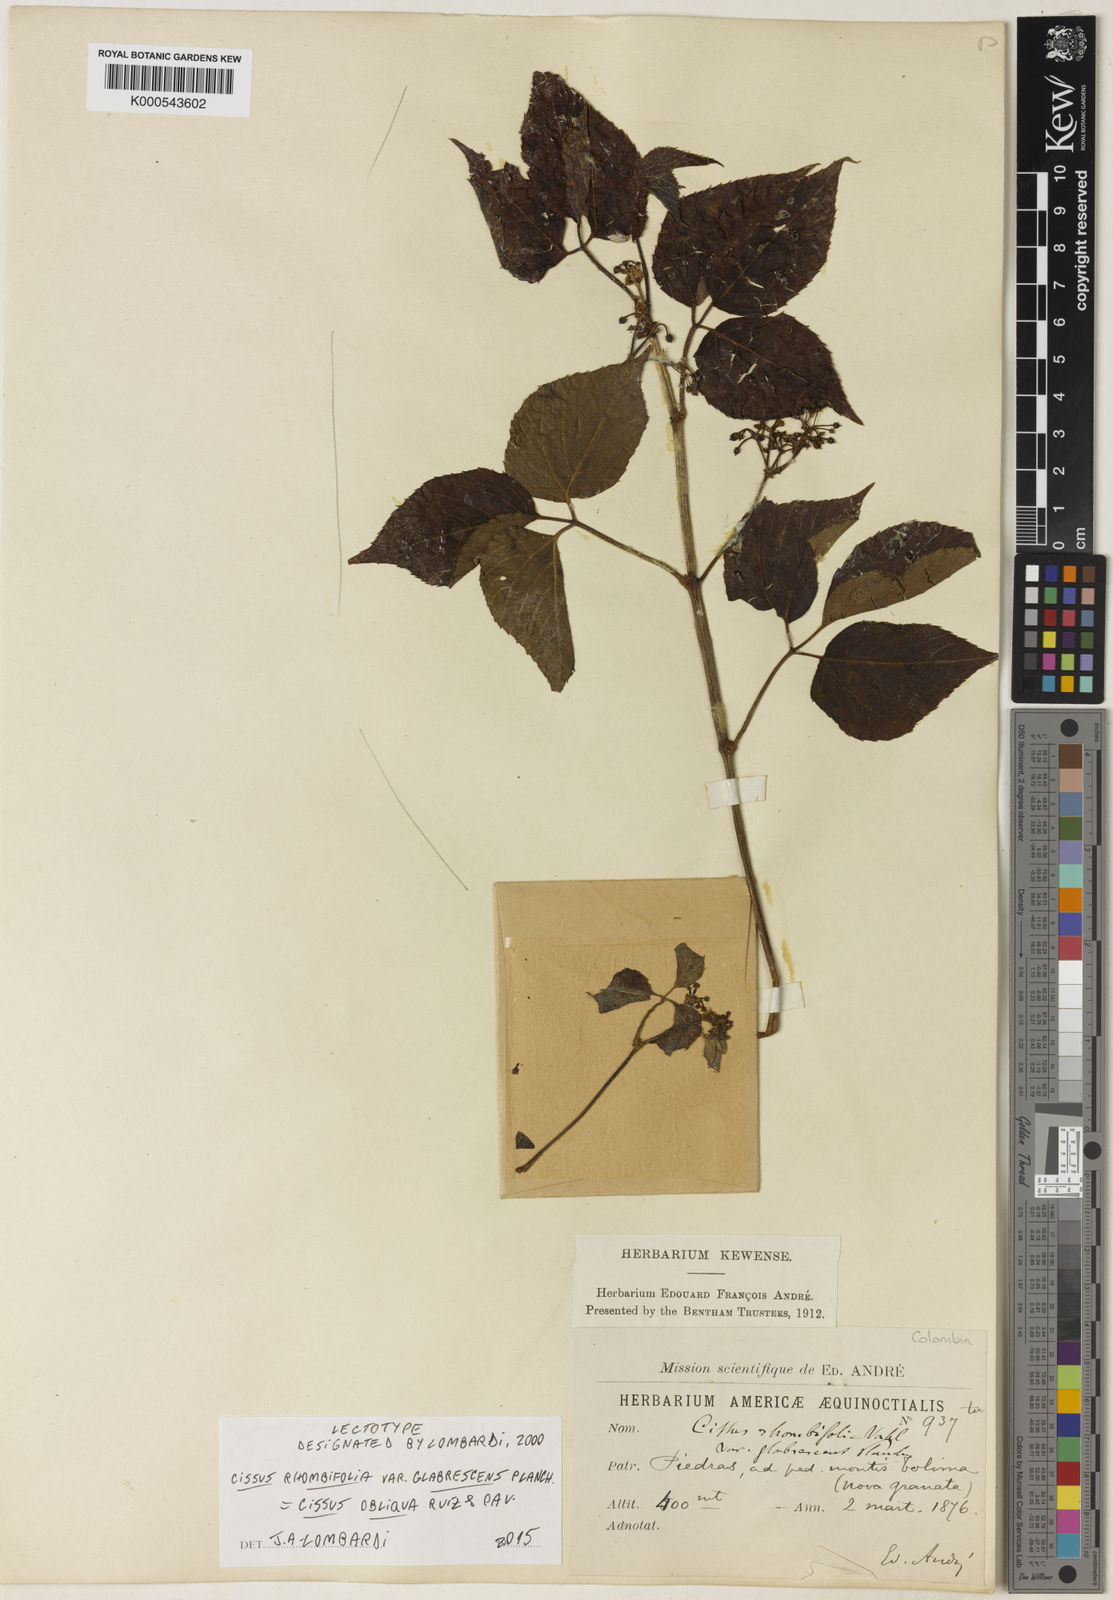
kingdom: Plantae
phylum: Tracheophyta
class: Magnoliopsida
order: Vitales
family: Vitaceae
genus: Cissus
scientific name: Cissus obliqua
